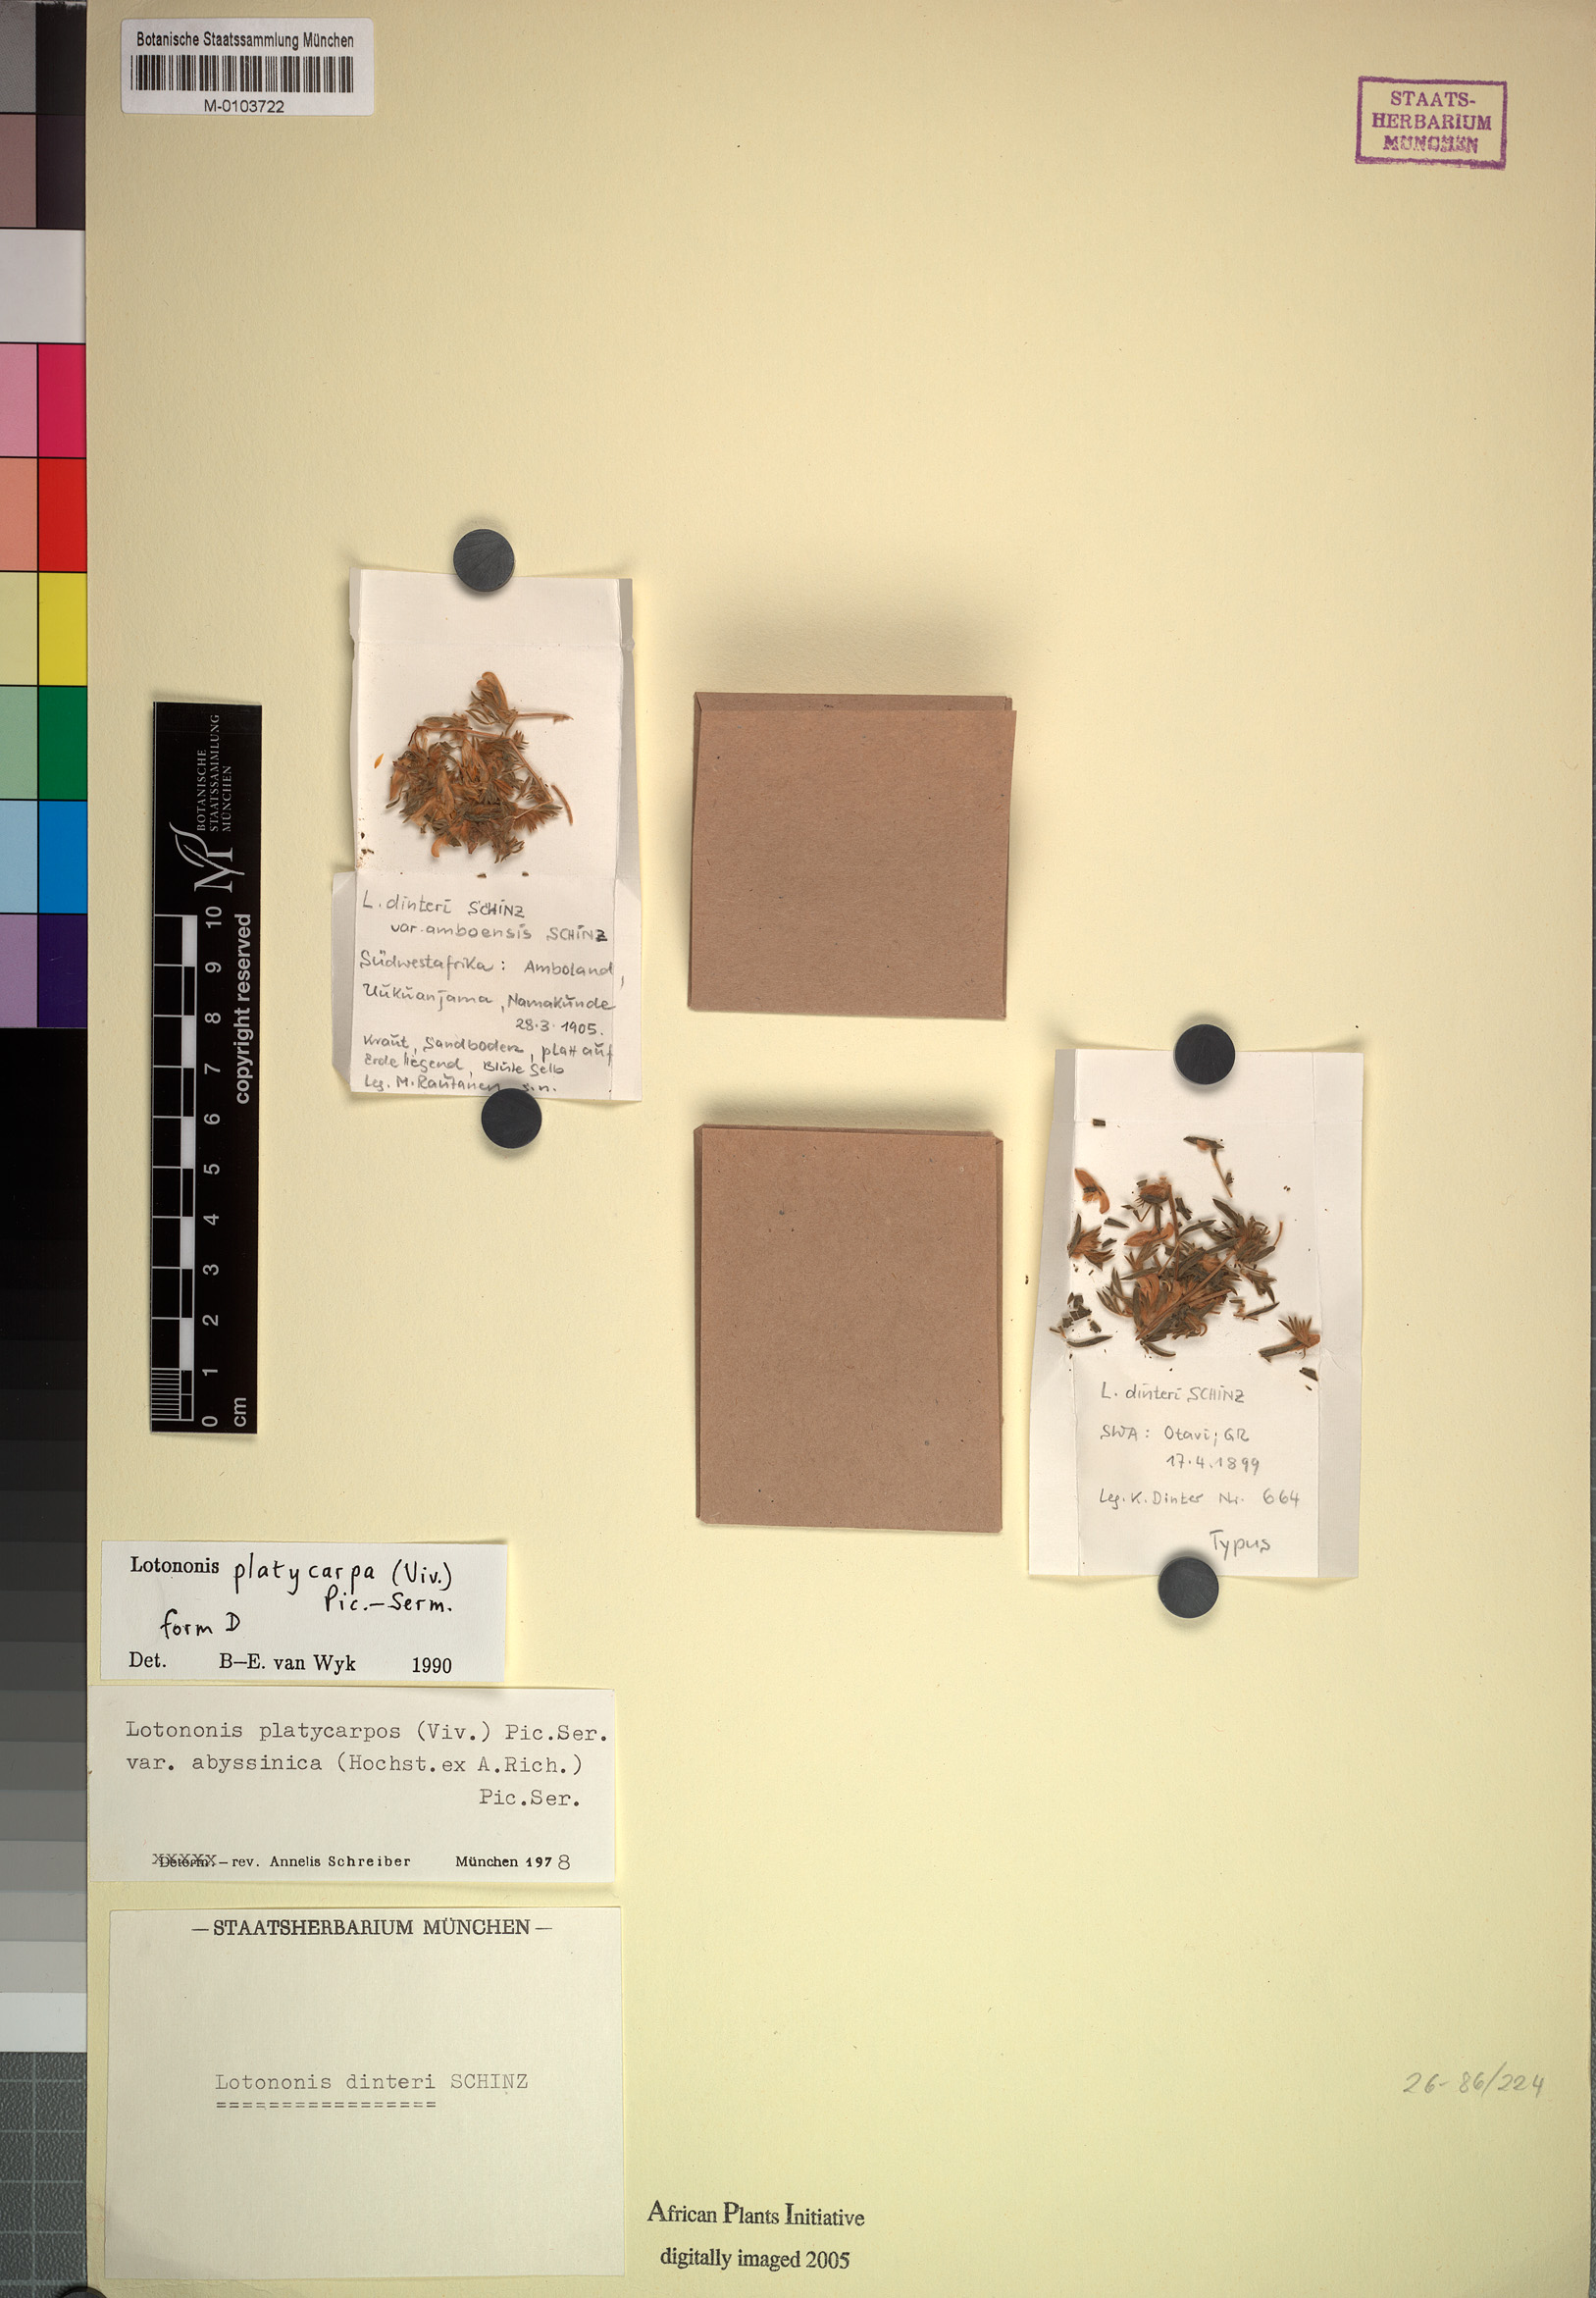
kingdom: Plantae
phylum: Tracheophyta
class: Magnoliopsida
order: Fabales
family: Fabaceae
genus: Leobordea
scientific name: Leobordea platycarpa
